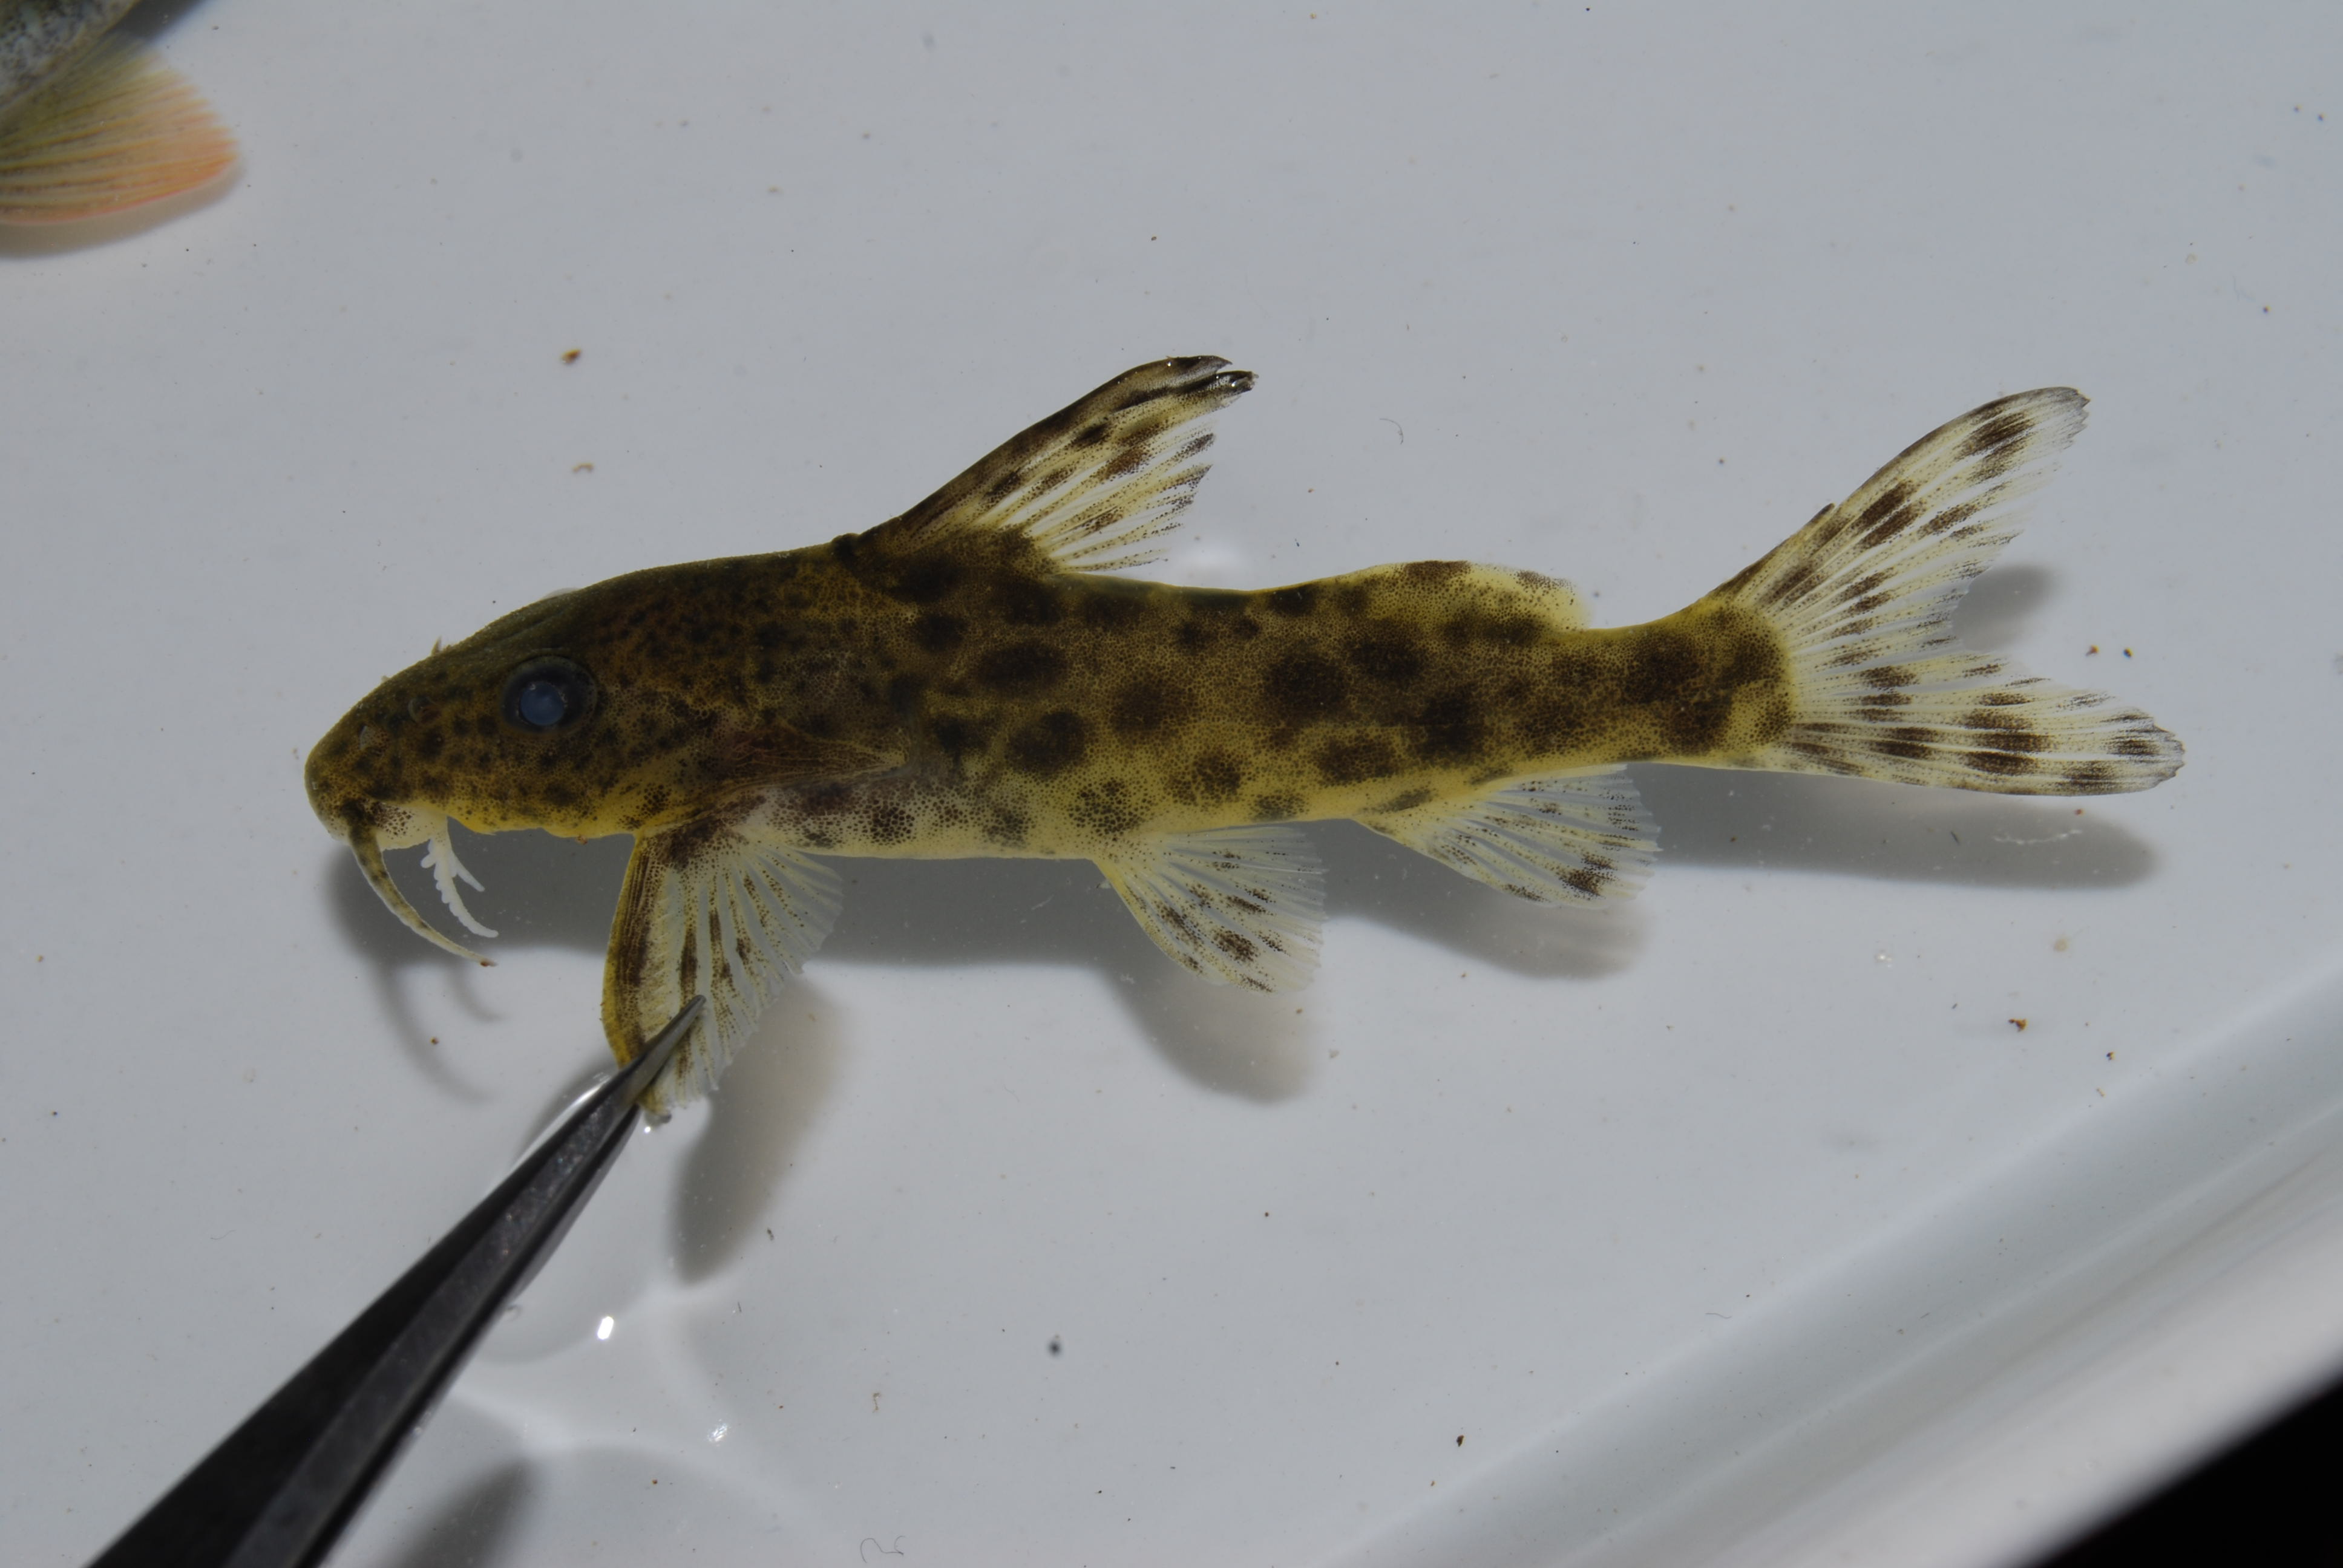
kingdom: Animalia
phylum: Chordata
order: Cypriniformes
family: Cyprinidae
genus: Labeo
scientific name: Labeo cylindricus
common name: Redeye labeo
